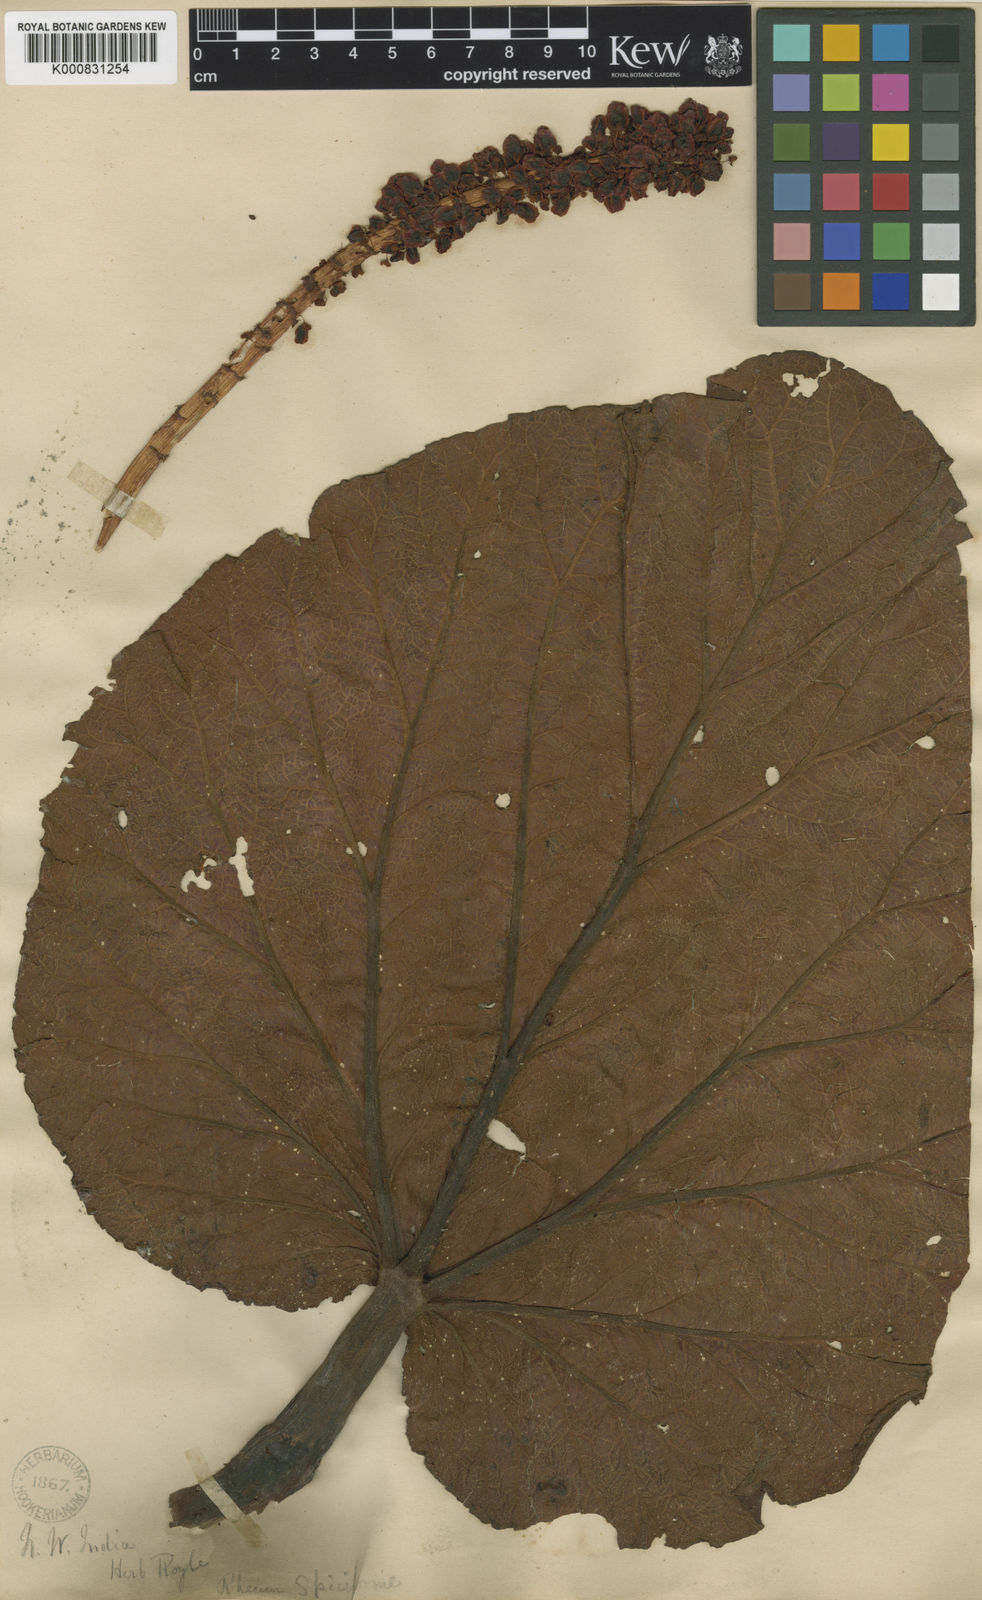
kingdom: Plantae
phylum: Tracheophyta
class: Magnoliopsida
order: Caryophyllales
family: Polygonaceae
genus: Rheum
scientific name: Rheum spiciforme
